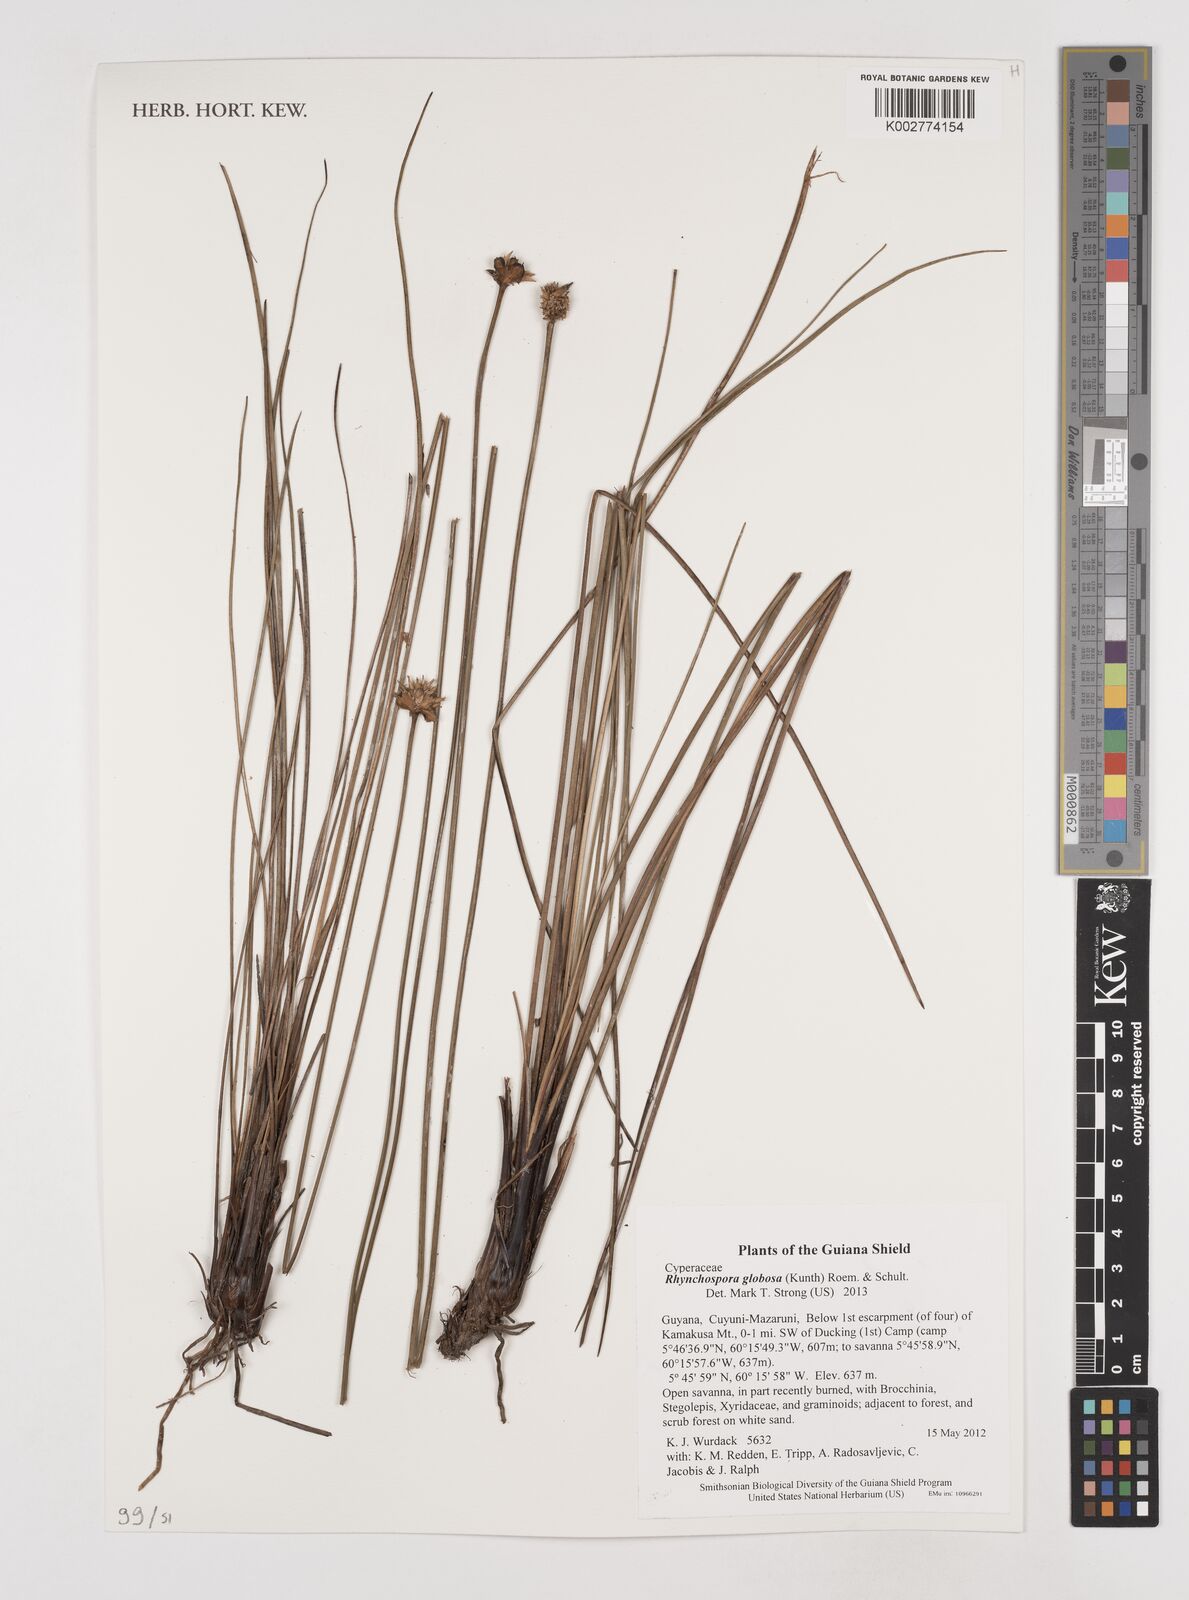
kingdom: Plantae
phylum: Tracheophyta
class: Liliopsida
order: Poales
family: Cyperaceae
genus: Rhynchospora
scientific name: Rhynchospora globosa
